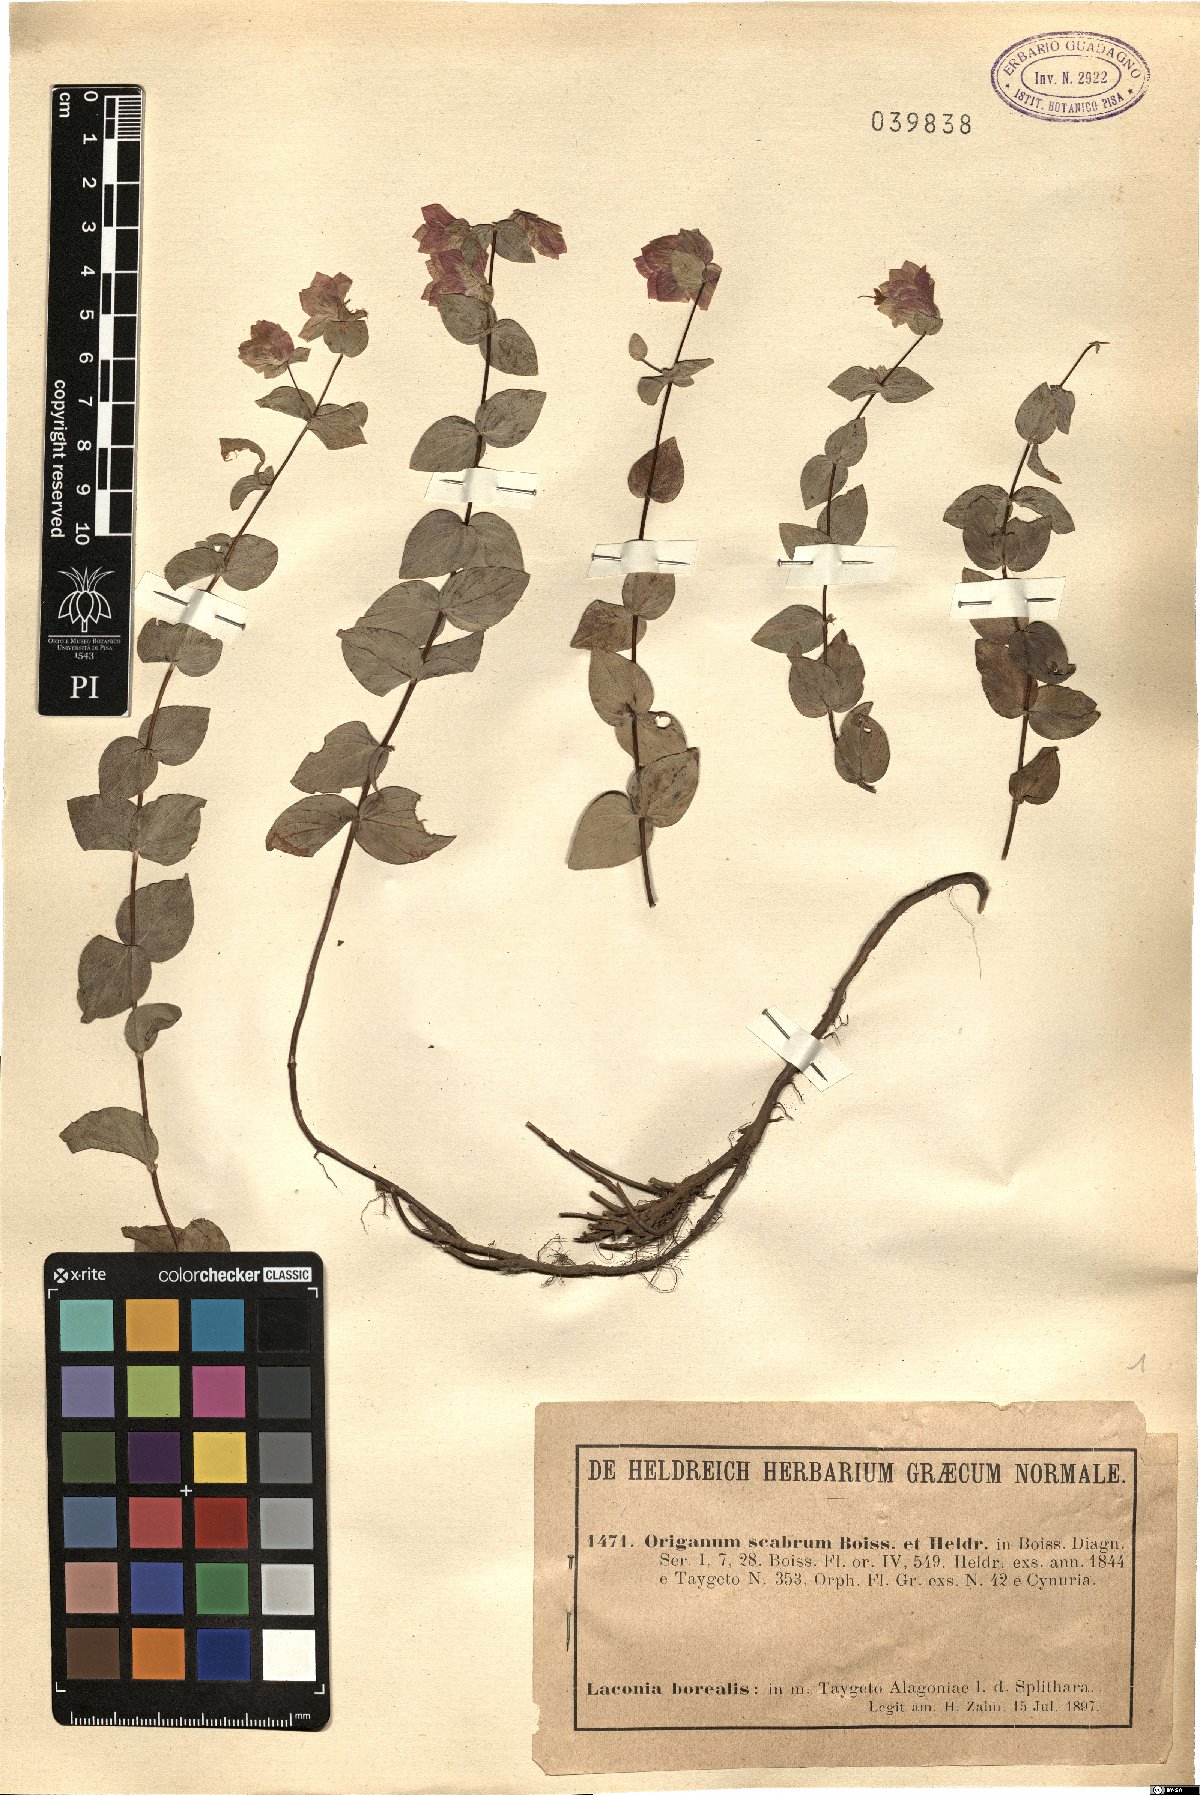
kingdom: Plantae
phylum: Tracheophyta
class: Magnoliopsida
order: Lamiales
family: Lamiaceae
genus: Origanum
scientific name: Origanum scabrum
